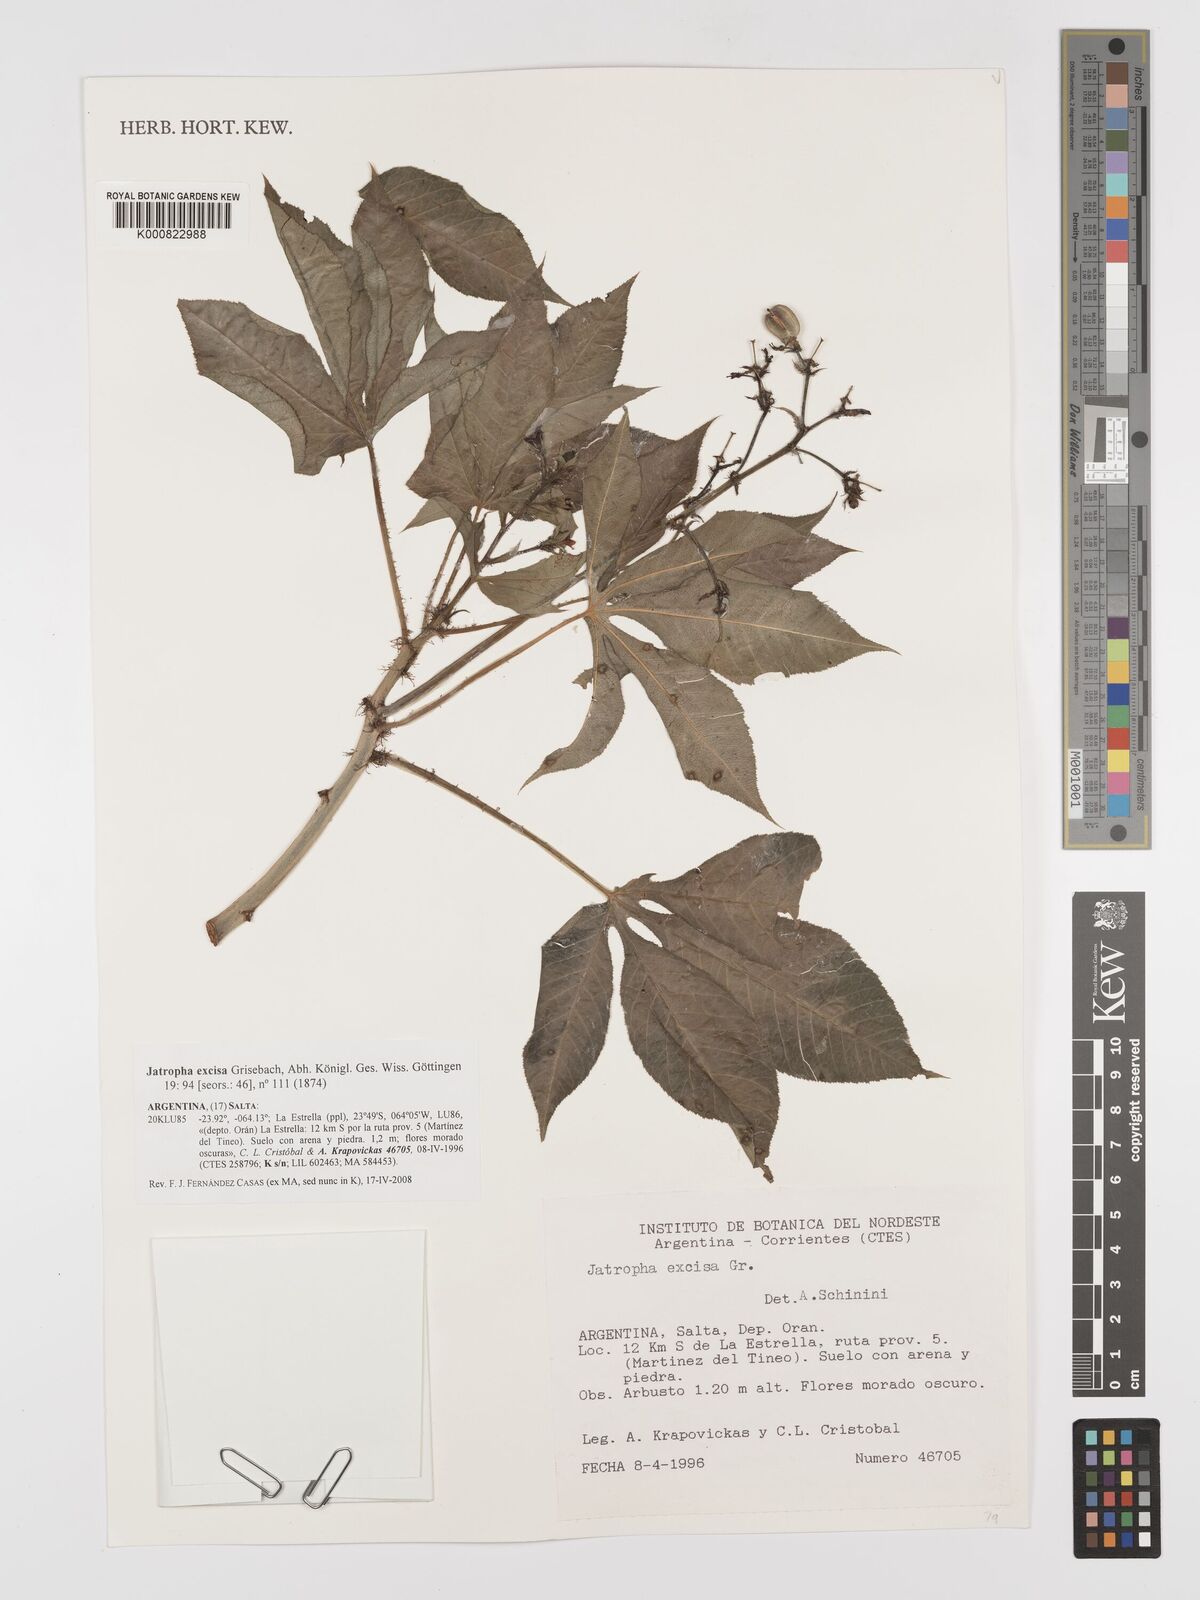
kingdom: Plantae
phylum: Tracheophyta
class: Magnoliopsida
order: Malpighiales
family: Euphorbiaceae
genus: Jatropha
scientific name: Jatropha excisa
